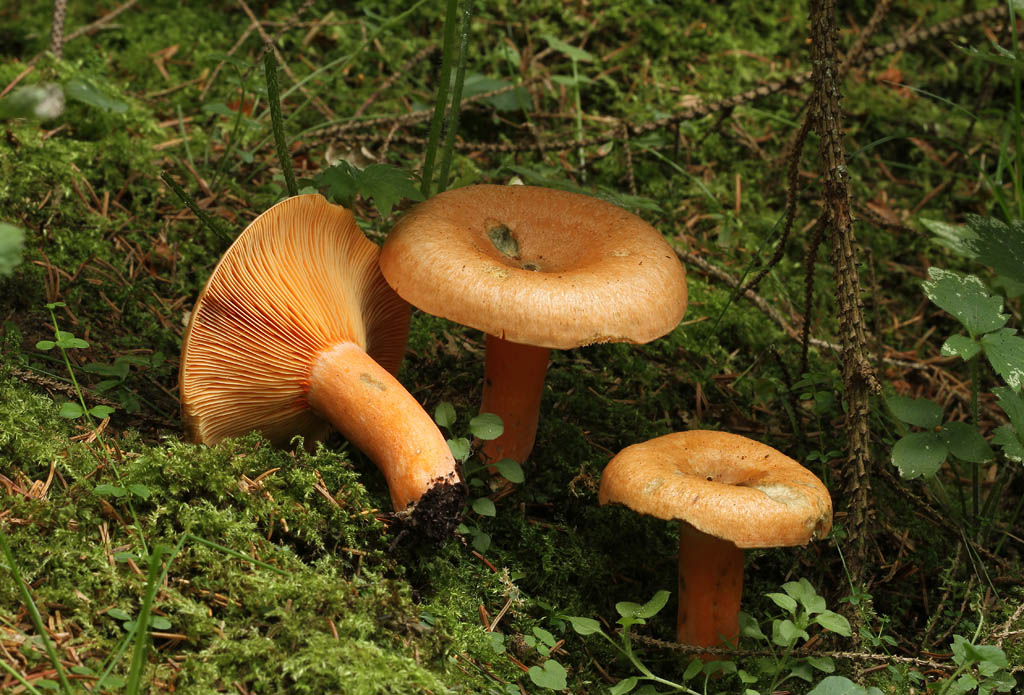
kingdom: Fungi
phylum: Basidiomycota
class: Agaricomycetes
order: Russulales
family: Russulaceae
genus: Lactarius
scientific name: Lactarius deterrimus
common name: gran-mælkehat
